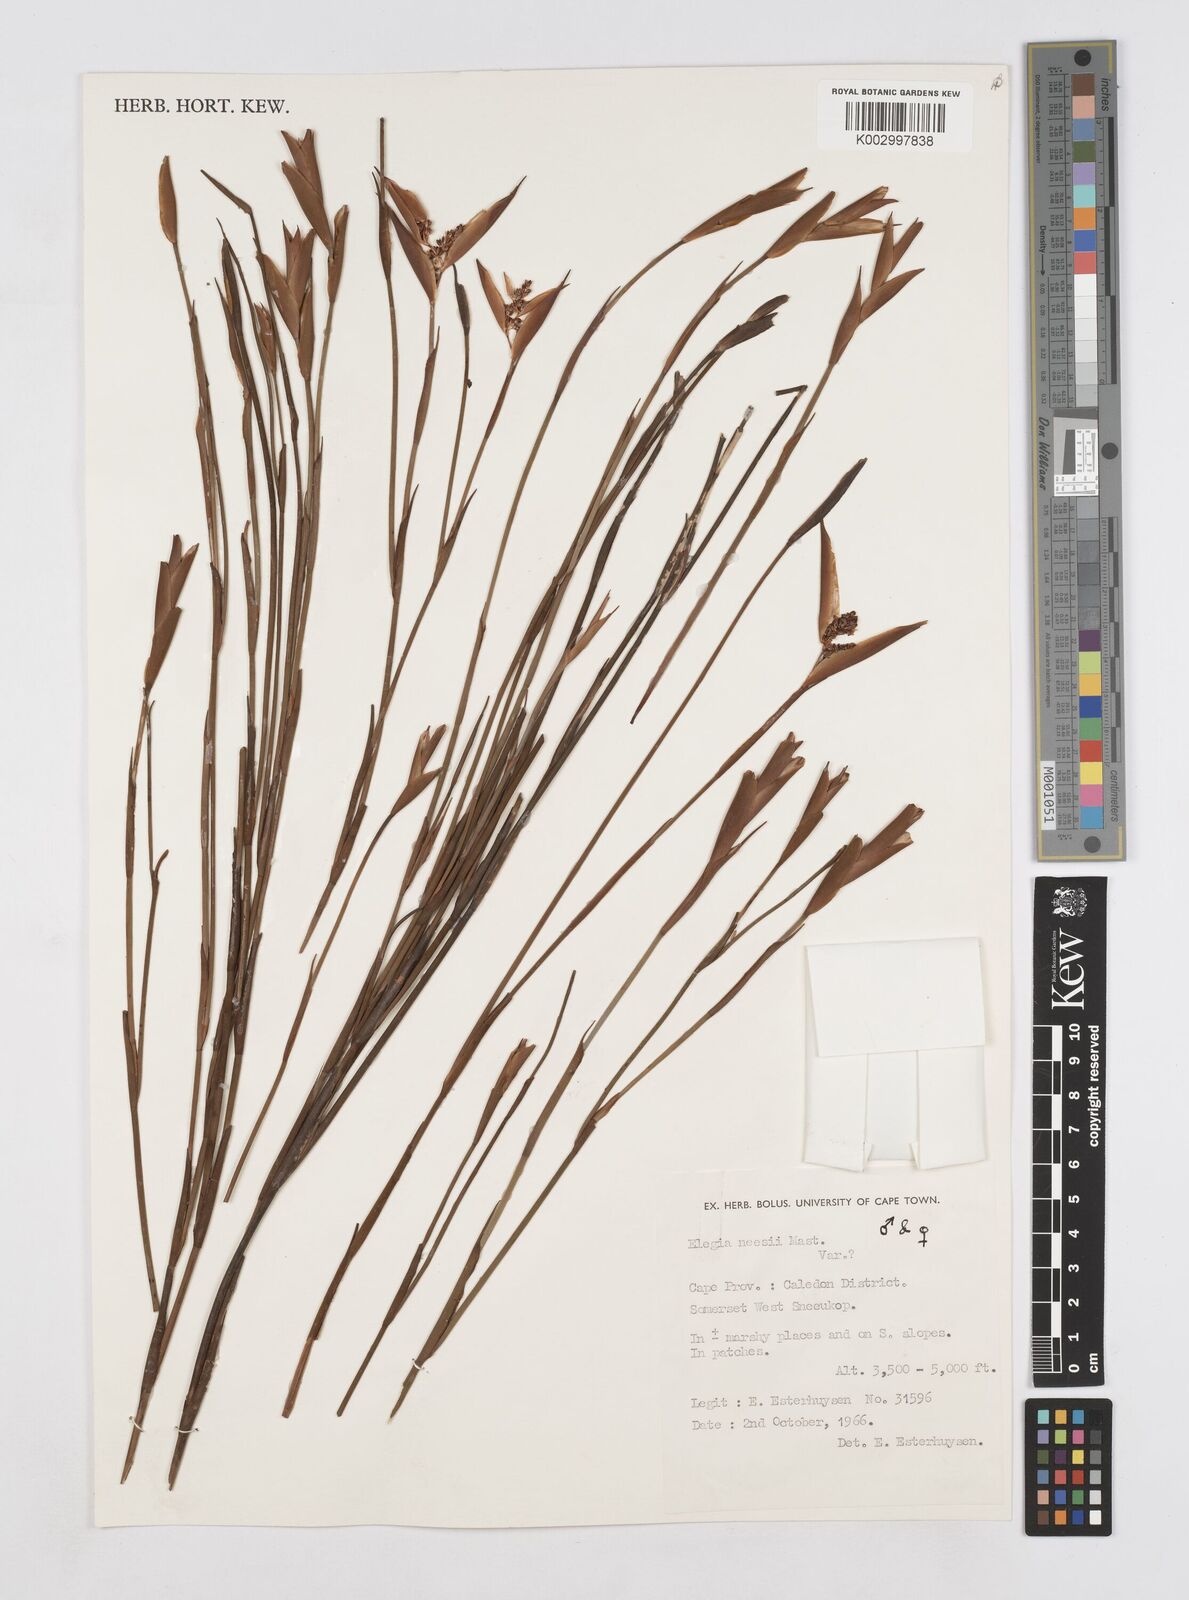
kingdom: Plantae
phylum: Tracheophyta
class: Liliopsida
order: Poales
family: Restionaceae
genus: Elegia
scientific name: Elegia neesii
